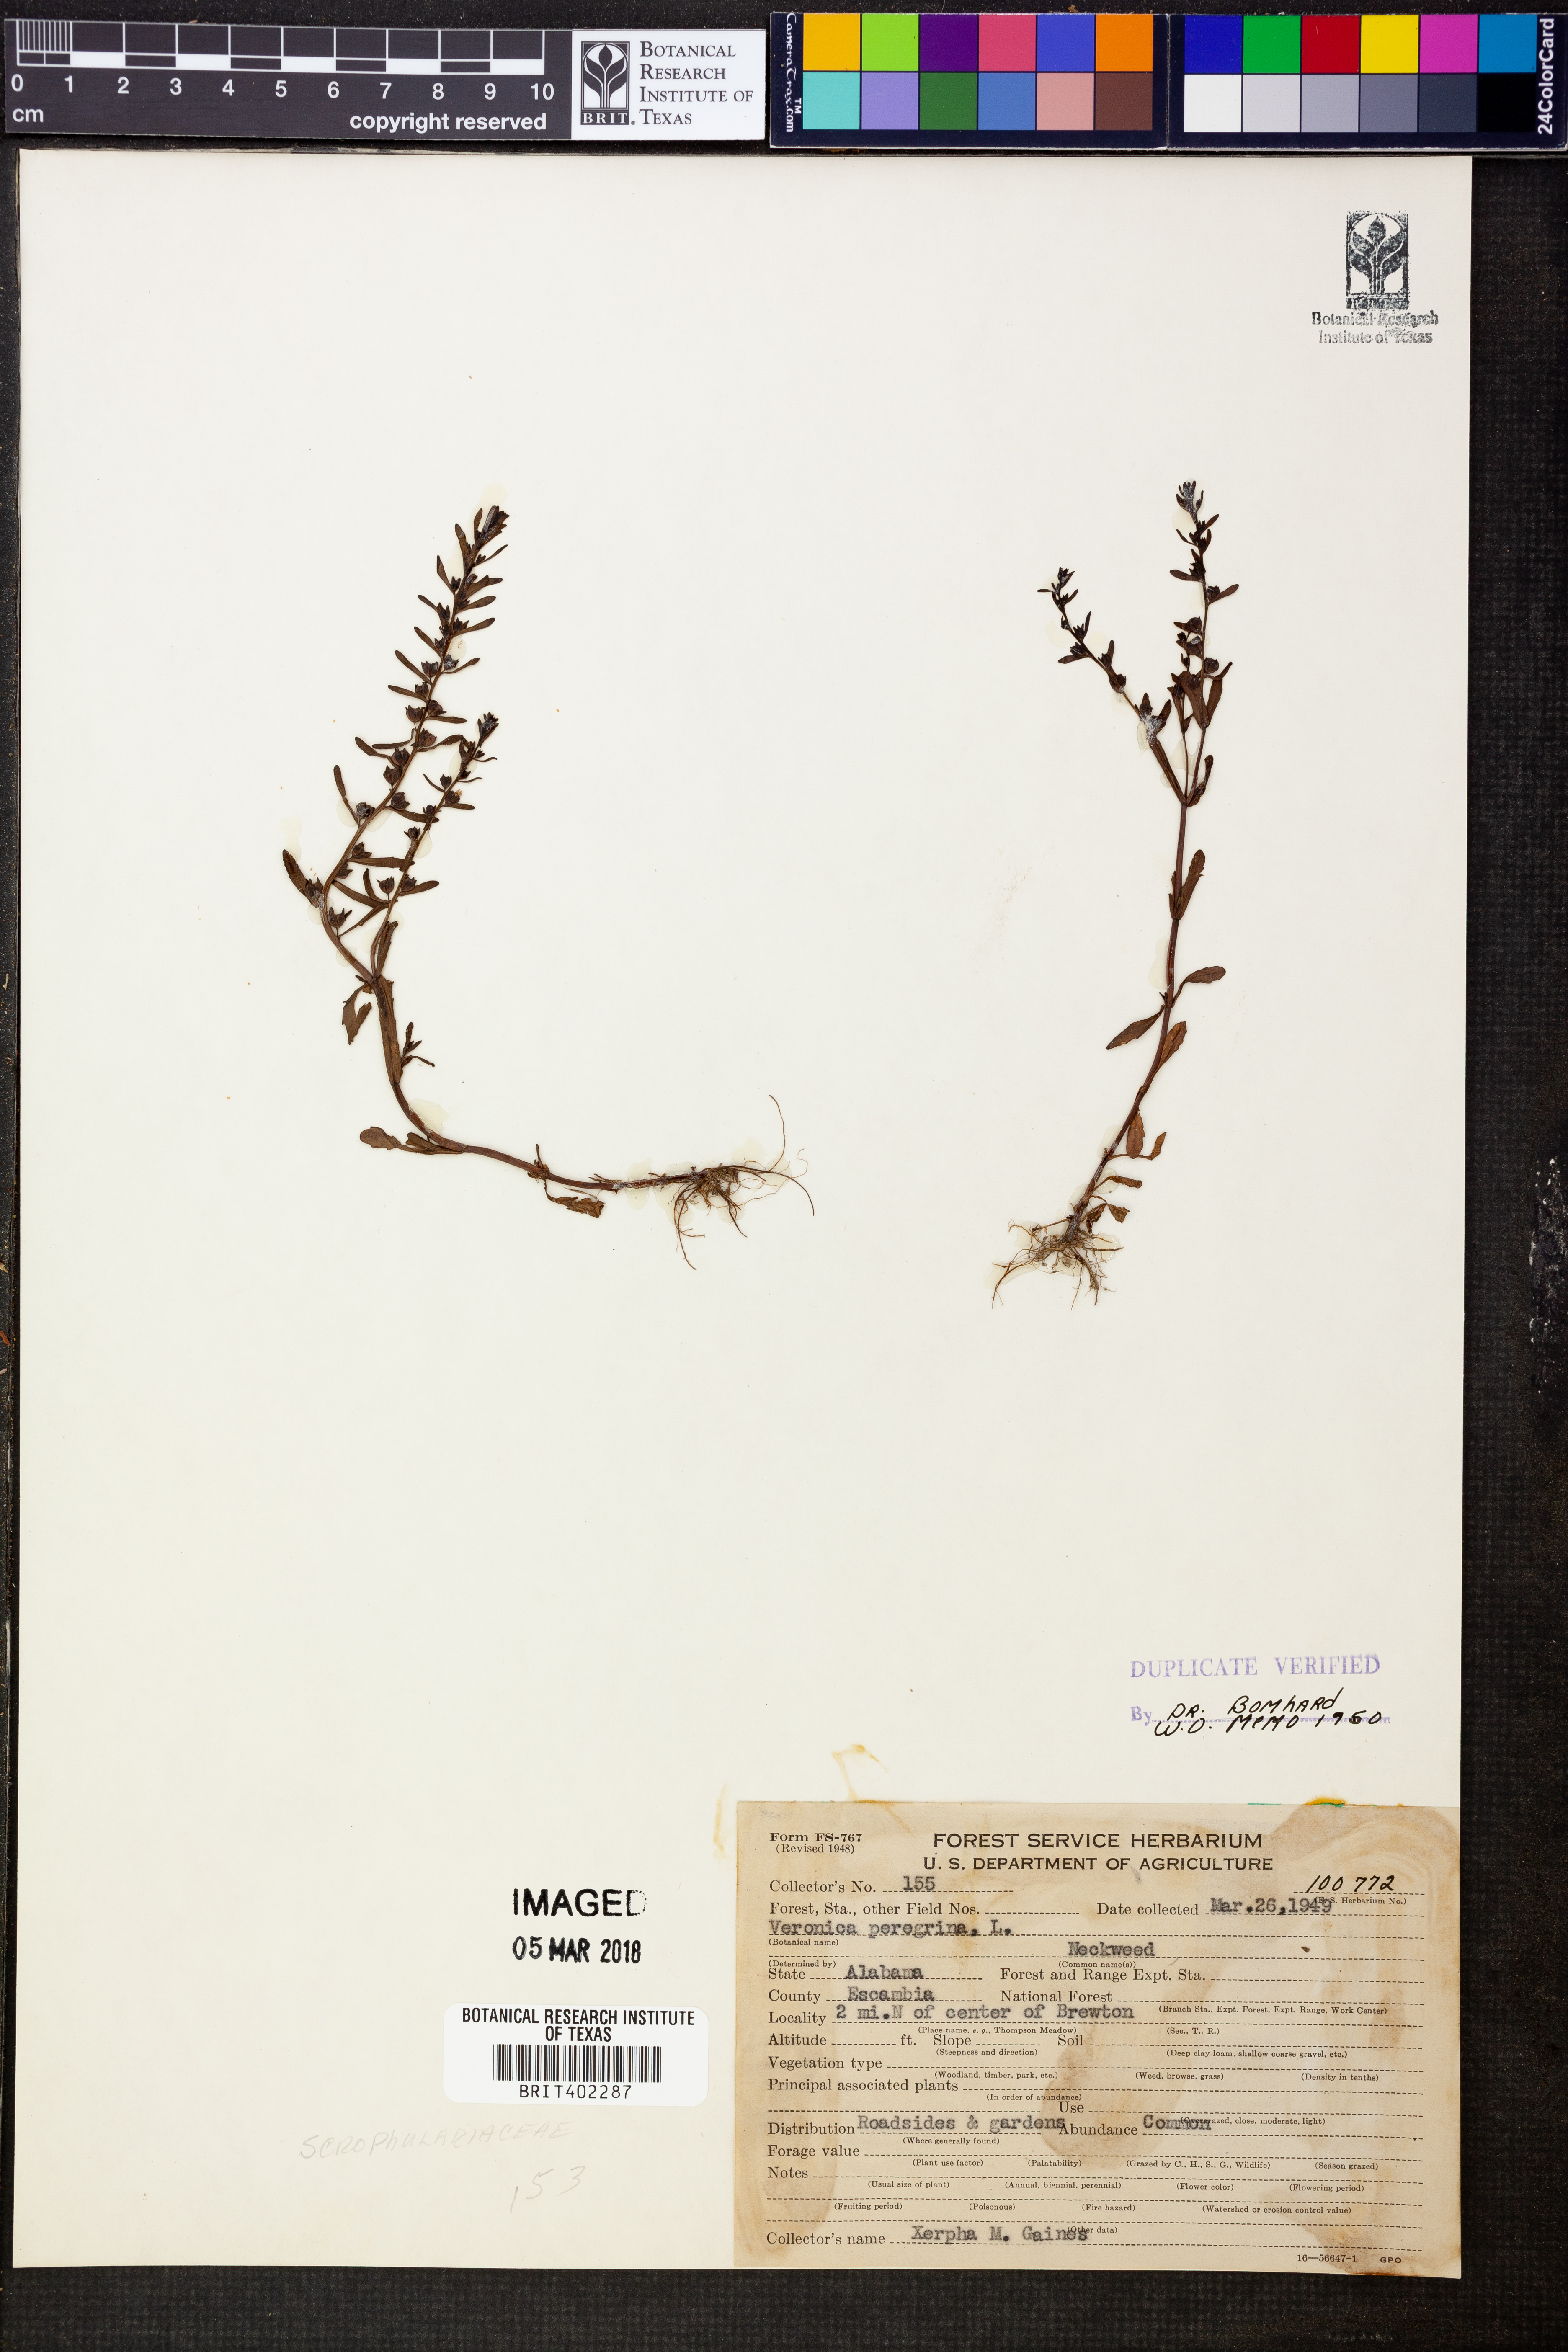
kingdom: Plantae
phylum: Tracheophyta
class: Magnoliopsida
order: Lamiales
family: Plantaginaceae
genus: Veronica
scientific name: Veronica peregrina
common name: Neckweed
